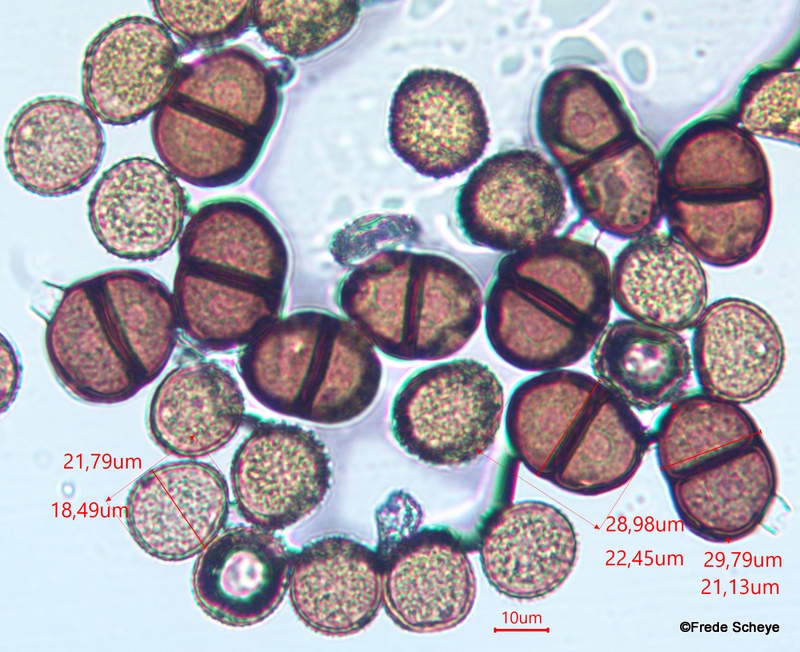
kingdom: Fungi
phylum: Basidiomycota
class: Pucciniomycetes
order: Pucciniales
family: Pucciniaceae
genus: Puccinia
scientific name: Puccinia lapsanae
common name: Nipplewort rust
